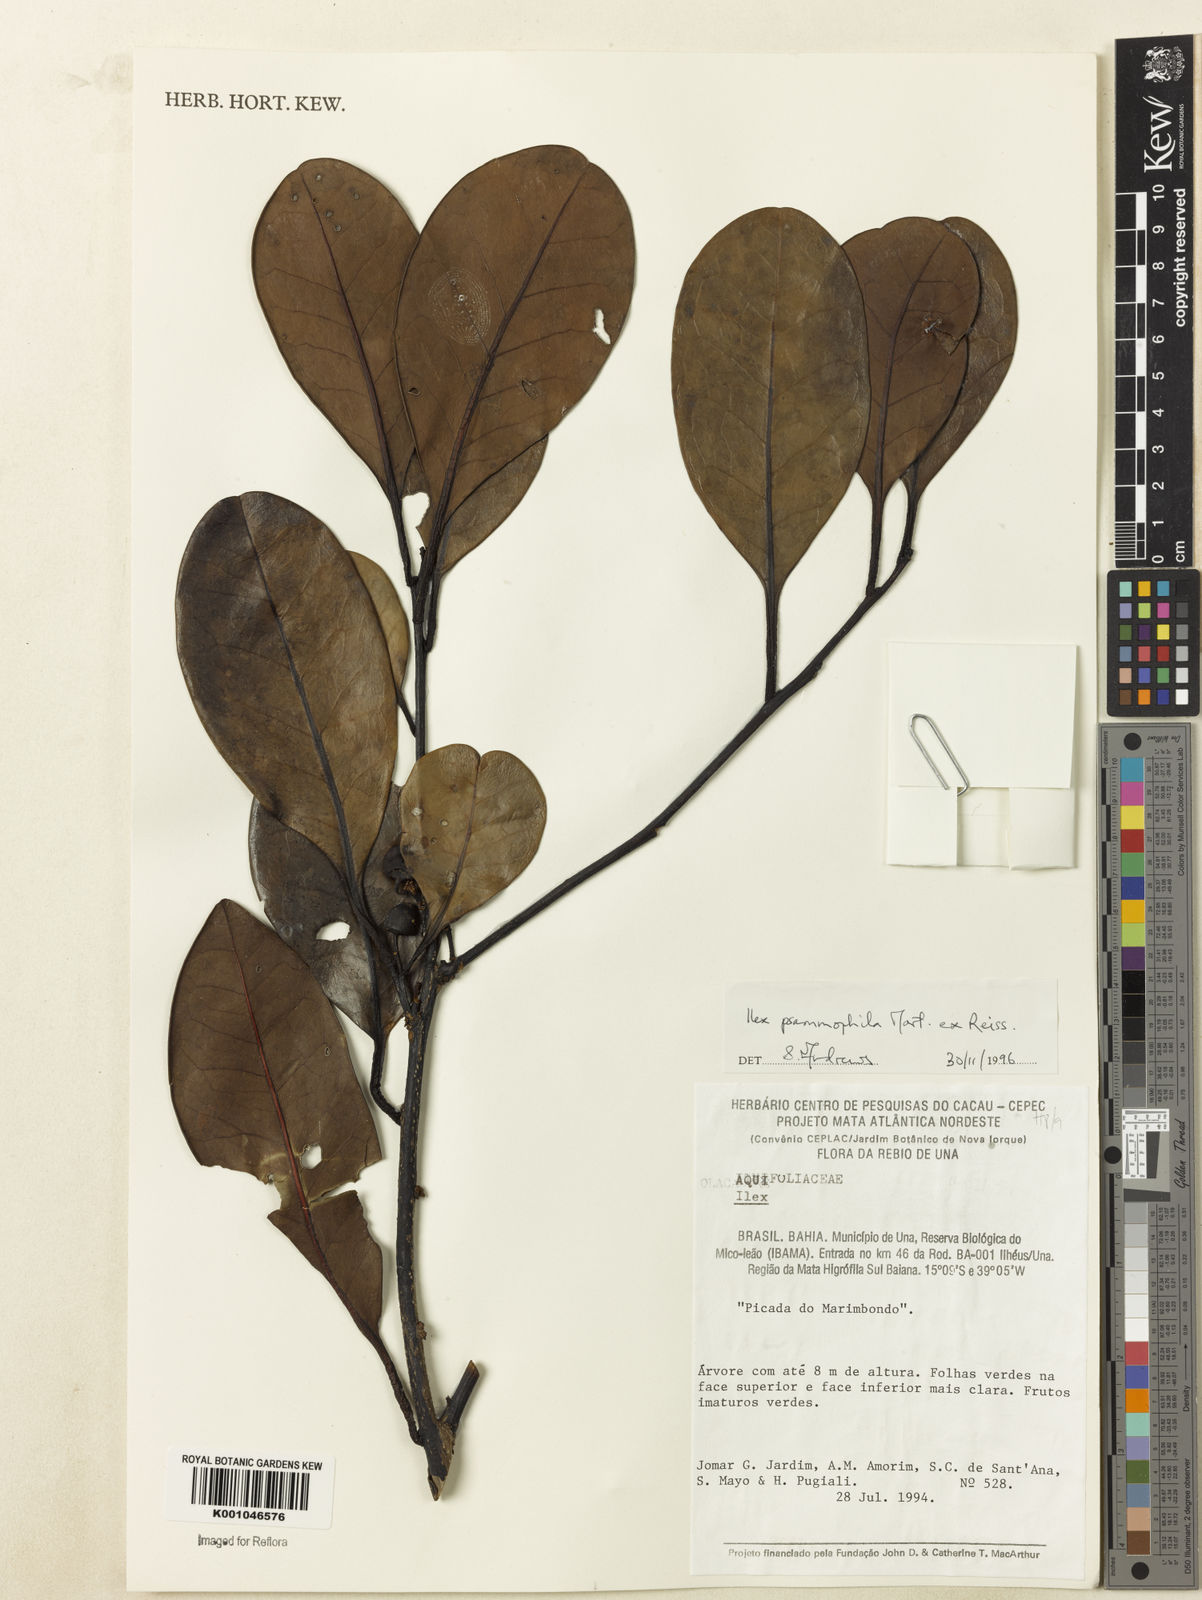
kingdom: Plantae
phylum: Tracheophyta
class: Magnoliopsida
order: Aquifoliales
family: Aquifoliaceae
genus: Ilex
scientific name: Ilex psammophila
